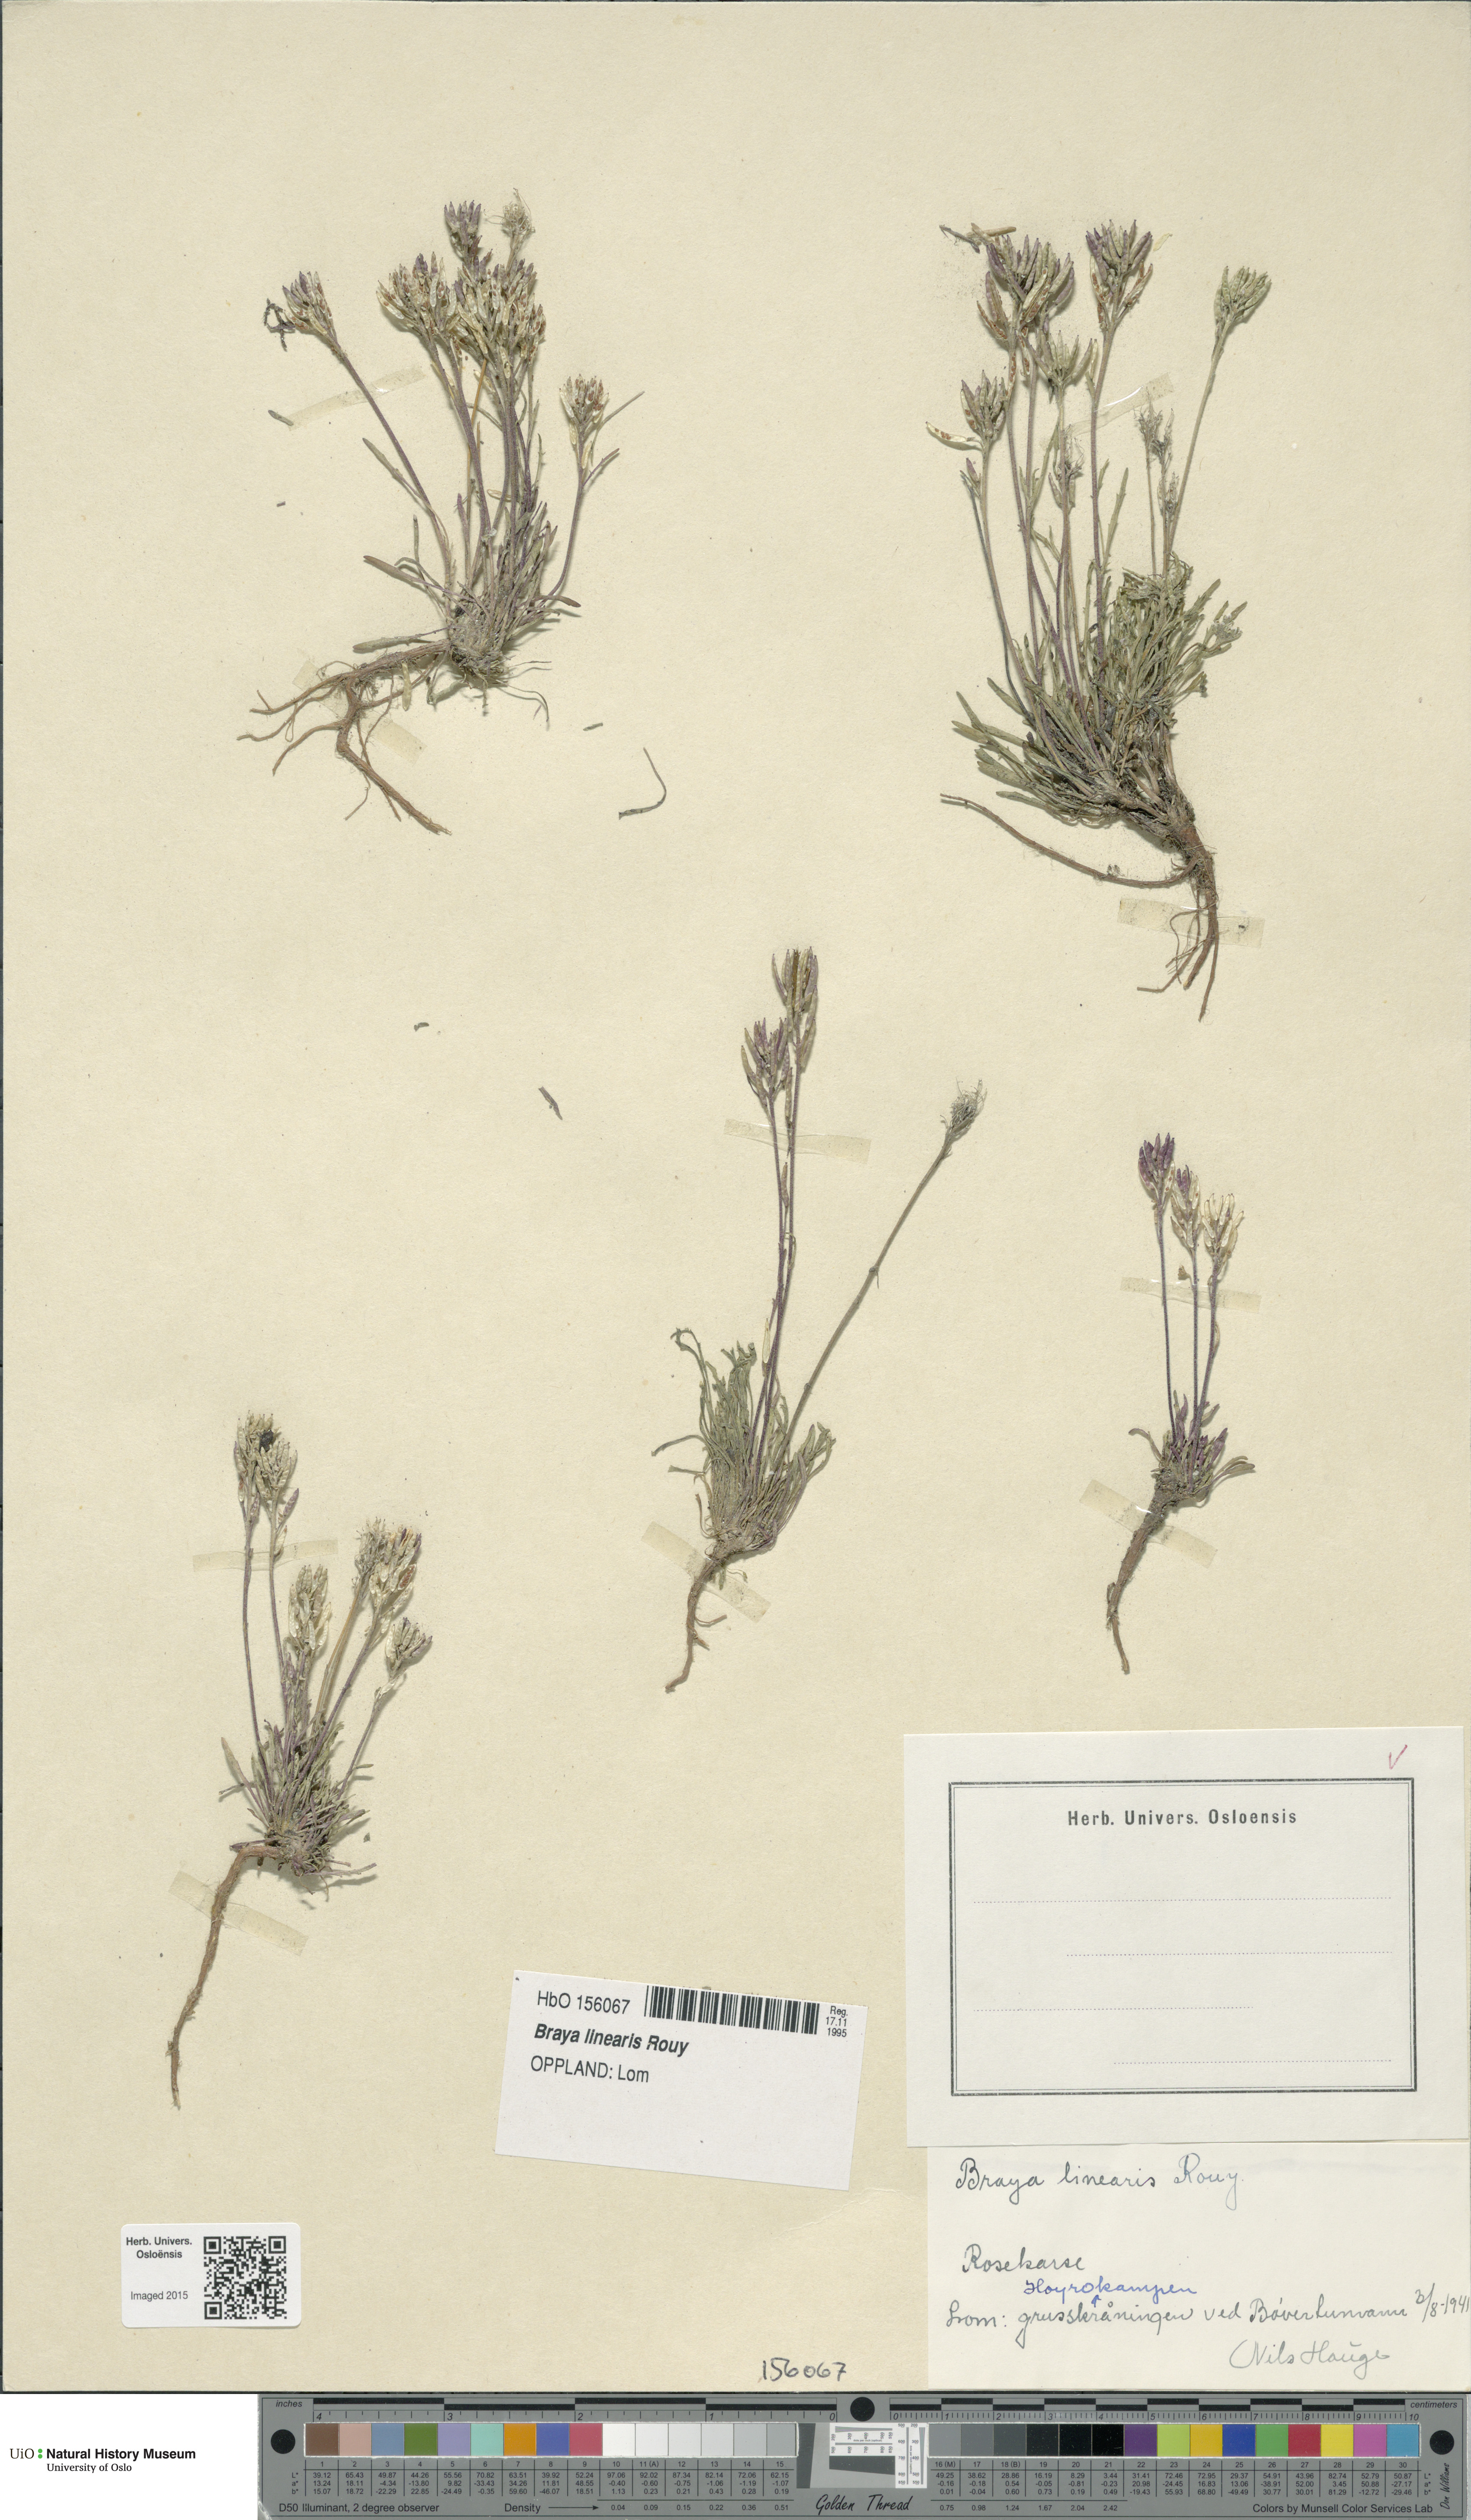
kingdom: Plantae
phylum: Tracheophyta
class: Magnoliopsida
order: Brassicales
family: Brassicaceae
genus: Braya
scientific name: Braya linearis
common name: Narrow-fruit braya
